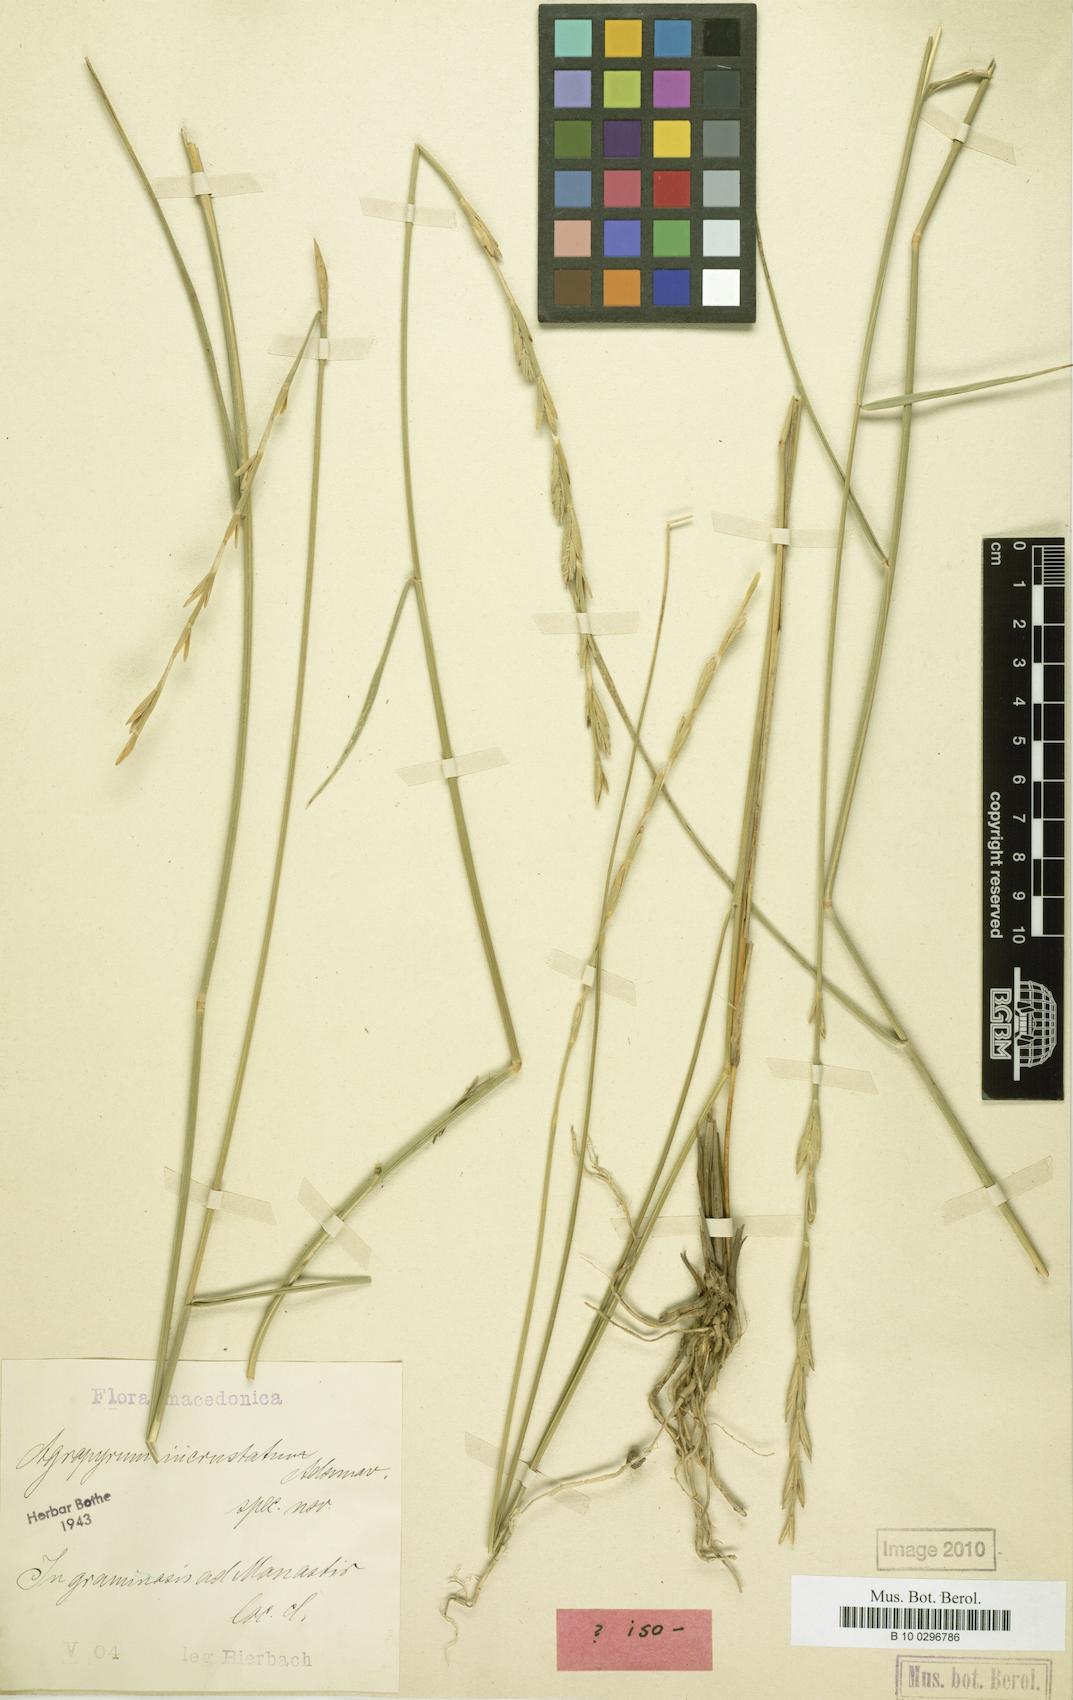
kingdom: Plantae
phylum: Tracheophyta
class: Liliopsida
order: Poales
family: Poaceae
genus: Thinopyrum
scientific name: Thinopyrum varnense
